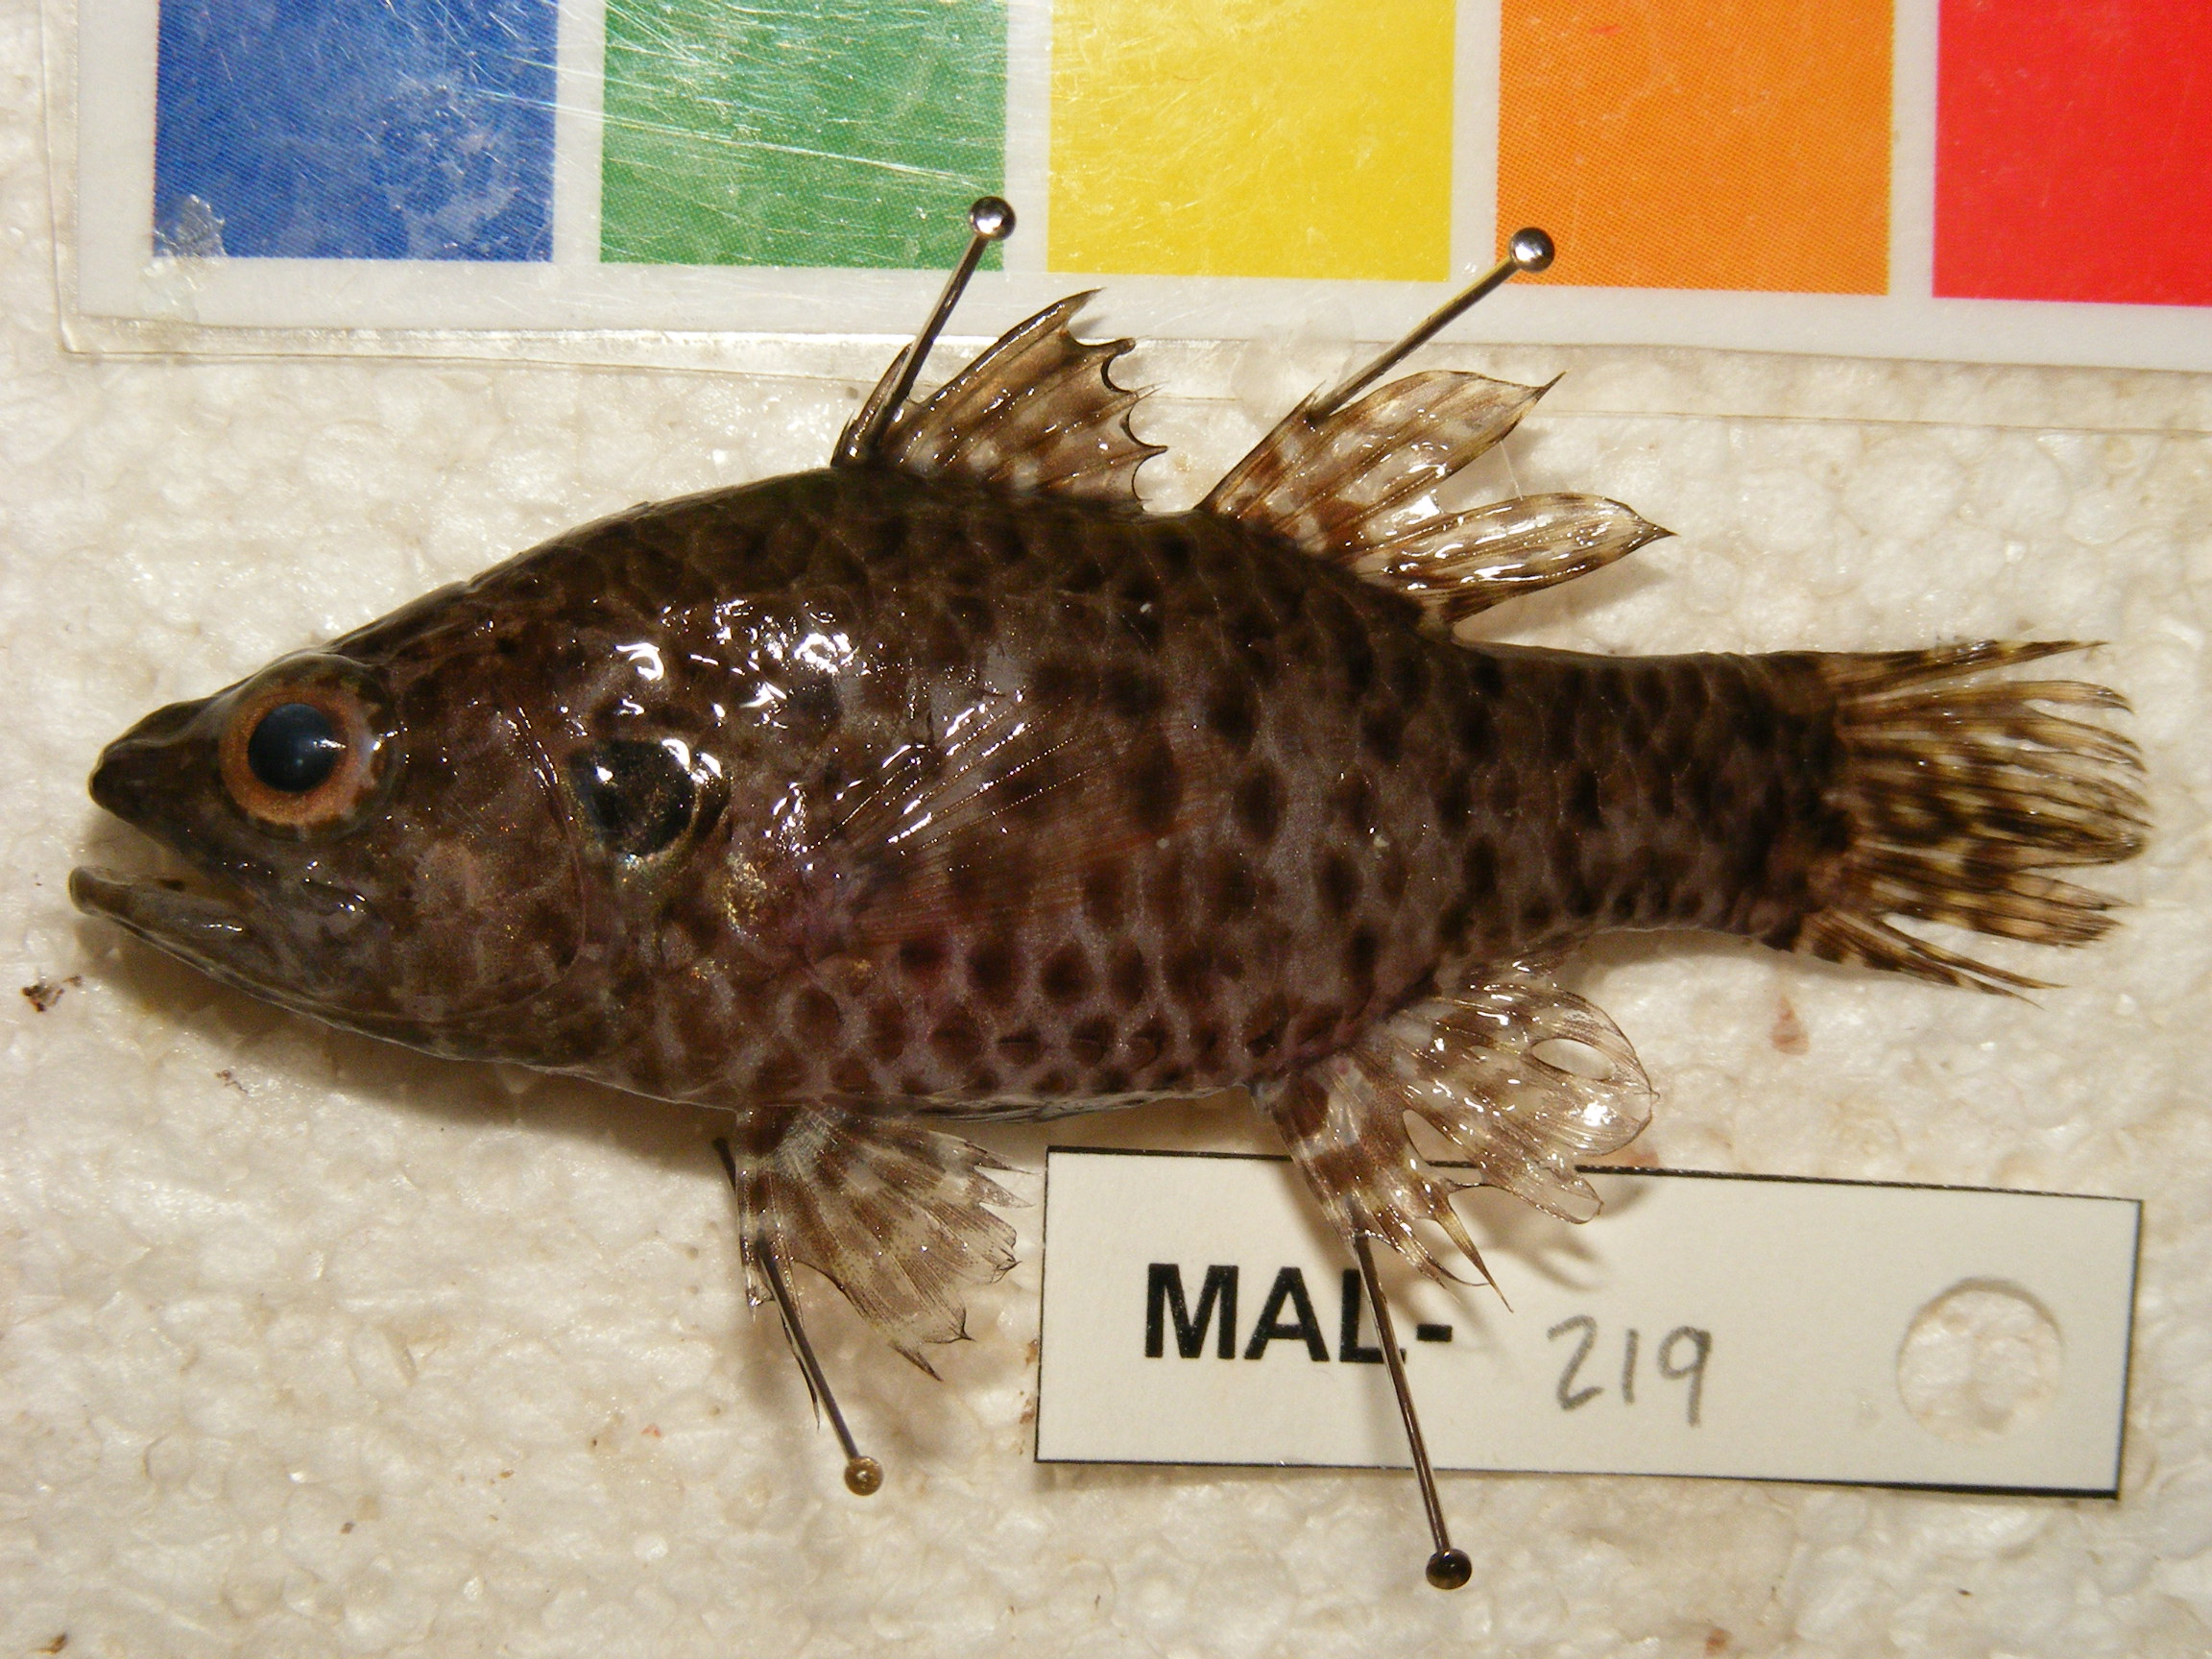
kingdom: Animalia
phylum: Chordata
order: Perciformes
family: Apogonidae
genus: Fowleria
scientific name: Fowleria variegata
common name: Variegated cardinalfish
